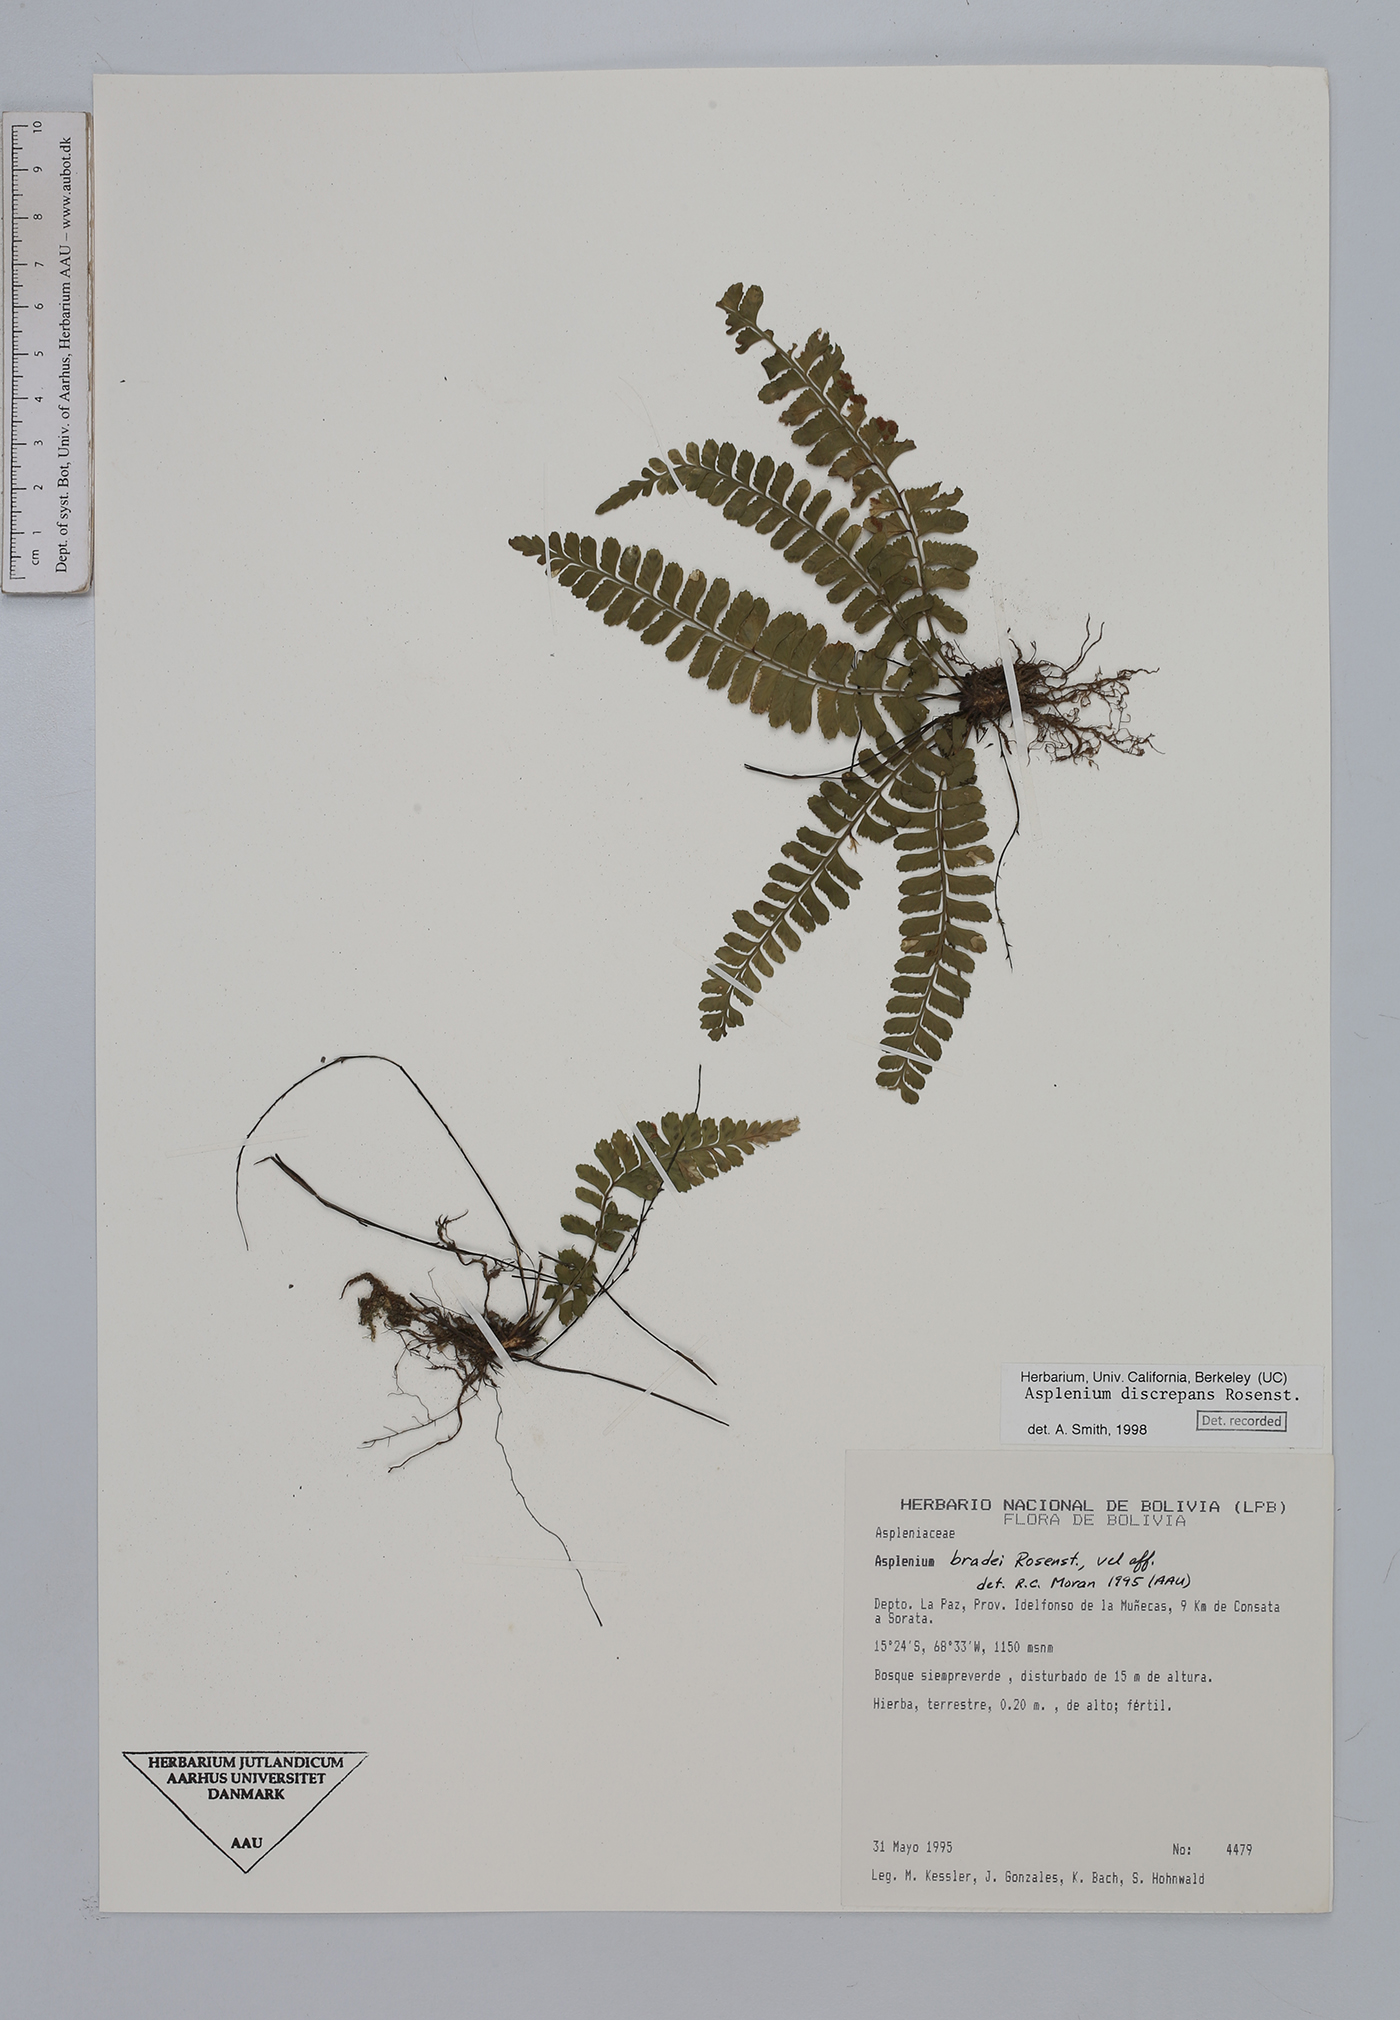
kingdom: Plantae
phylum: Tracheophyta
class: Polypodiopsida
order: Polypodiales
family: Aspleniaceae
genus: Asplenium
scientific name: Asplenium discrepans
